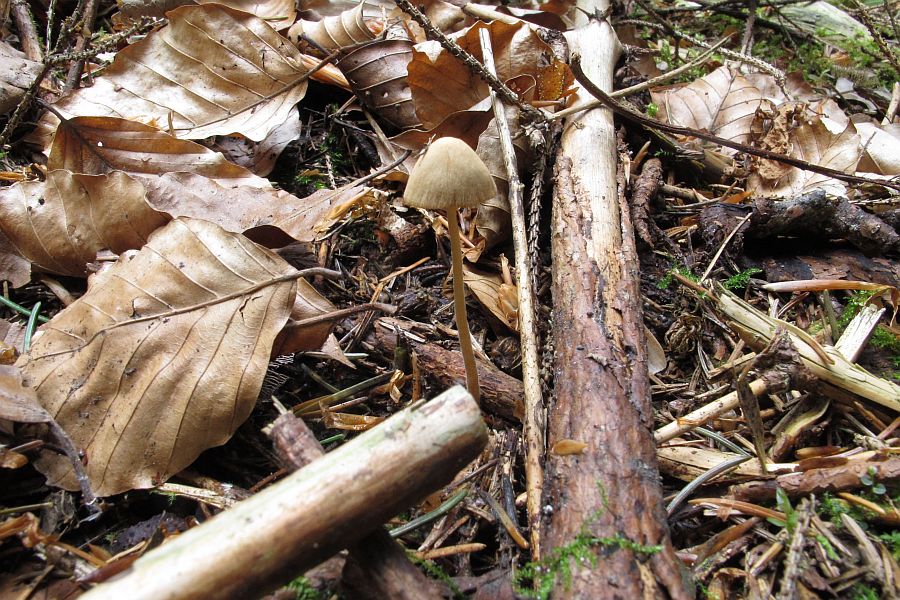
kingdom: Fungi
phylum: Basidiomycota
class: Agaricomycetes
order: Agaricales
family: Bolbitiaceae
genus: Conocybe
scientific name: Conocybe
